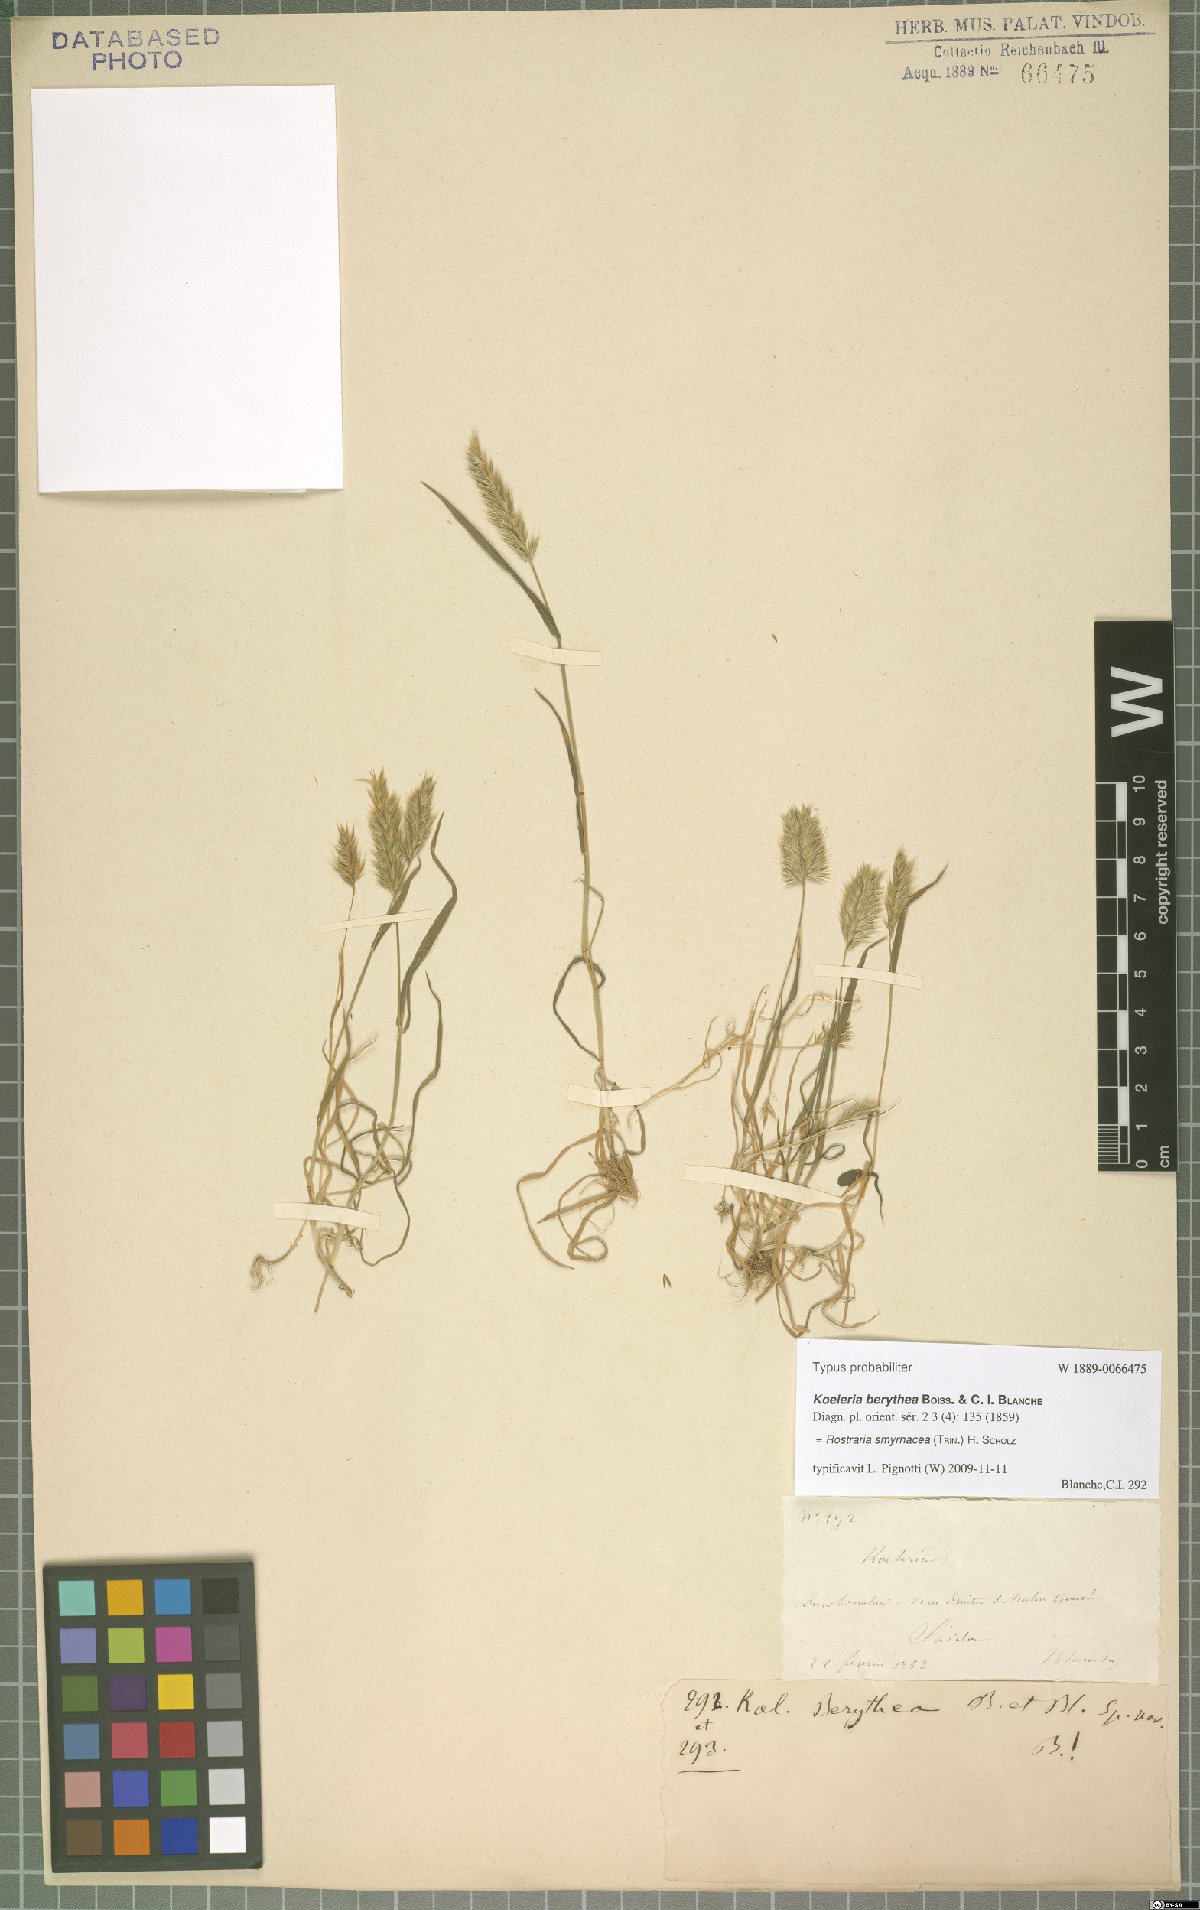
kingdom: Plantae
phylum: Tracheophyta
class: Liliopsida
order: Poales
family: Poaceae
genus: Rostraria
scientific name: Rostraria cristata
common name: Mediterranean hair-grass
